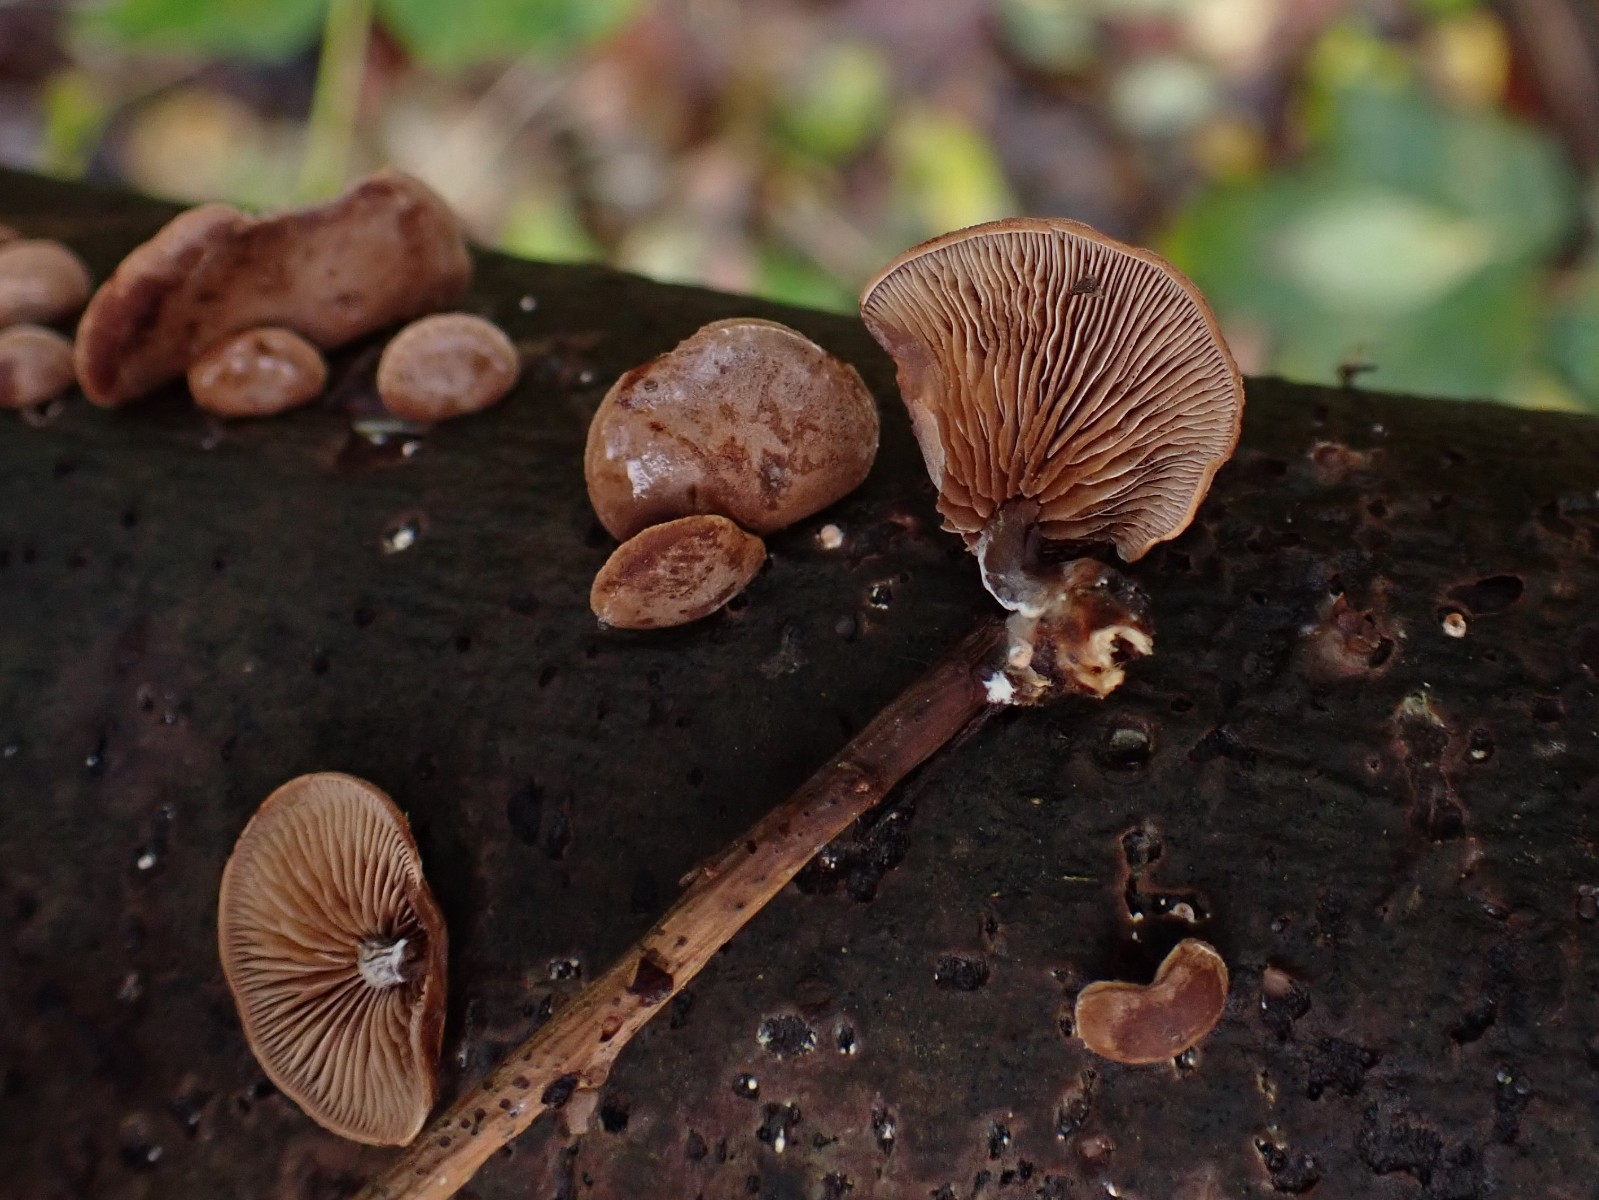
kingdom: Fungi
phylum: Basidiomycota
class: Agaricomycetes
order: Agaricales
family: Strophariaceae
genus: Deconica
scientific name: Deconica horizontalis
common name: ved-stråhat
